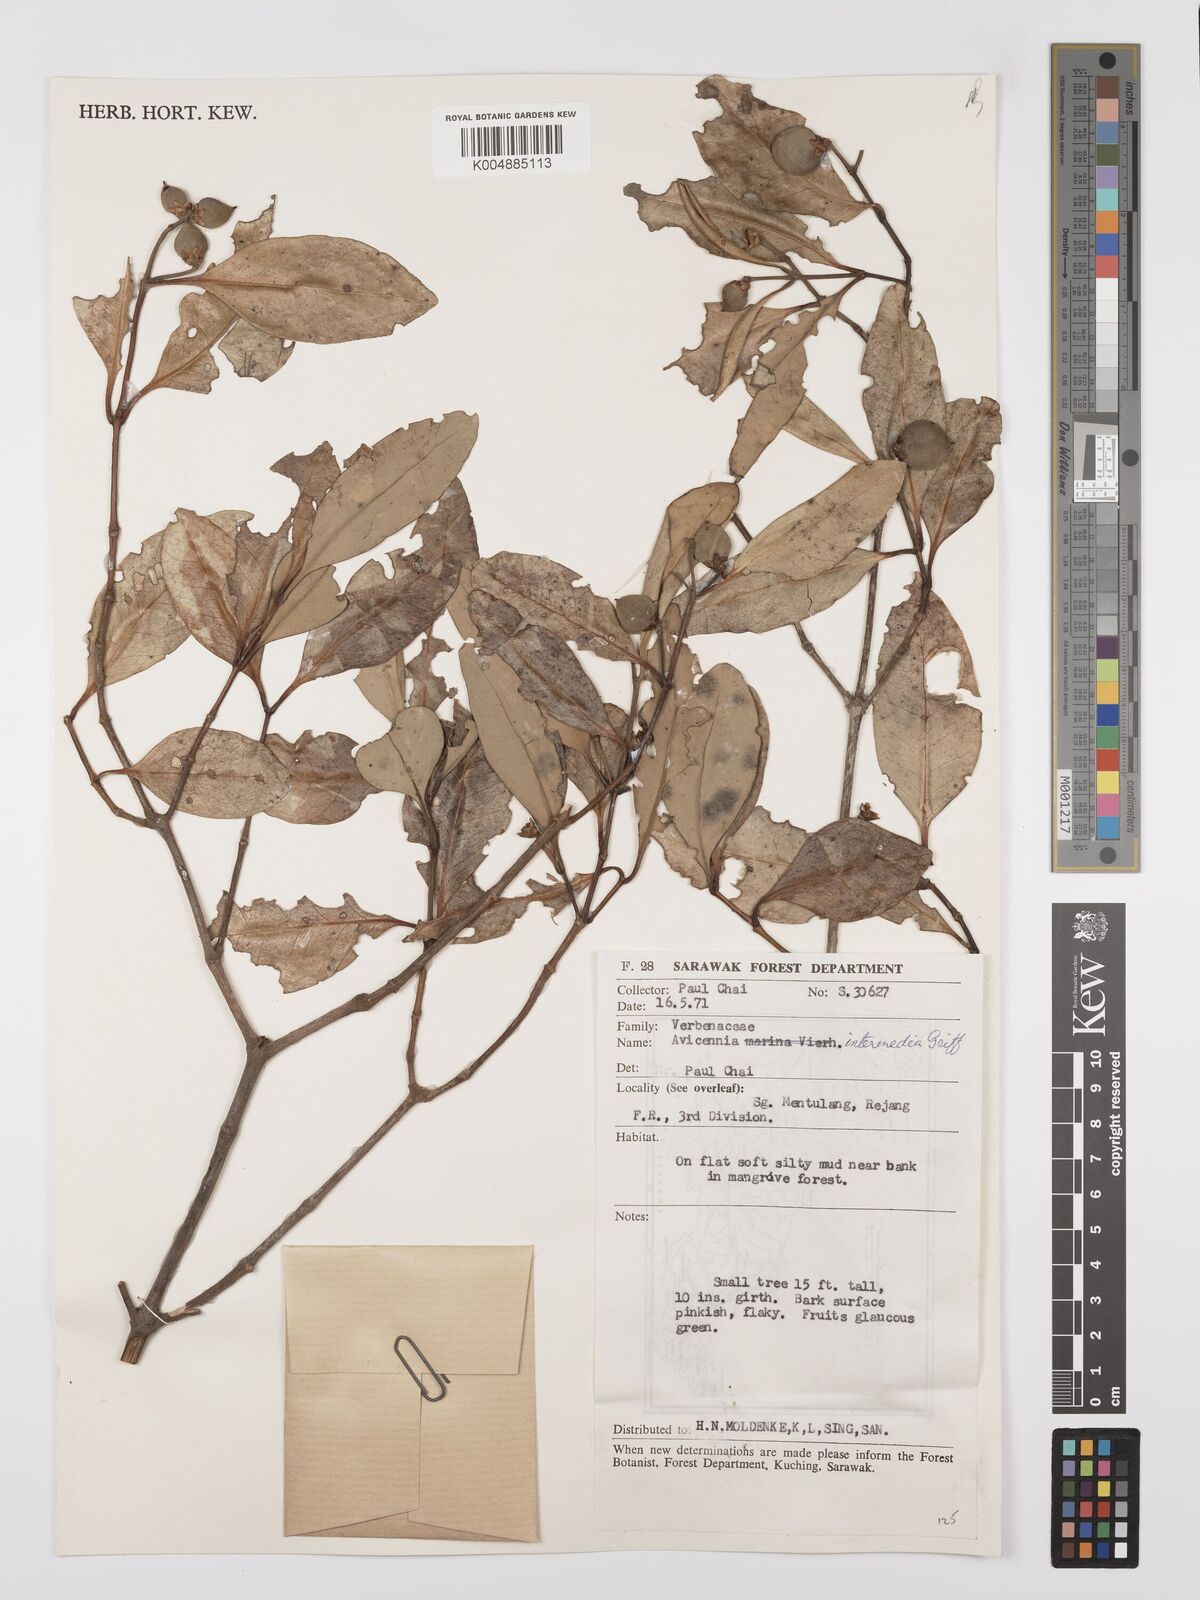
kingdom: Plantae
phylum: Tracheophyta
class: Magnoliopsida
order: Lamiales
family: Acanthaceae
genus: Avicennia
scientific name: Avicennia marina
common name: Gray mangrove
